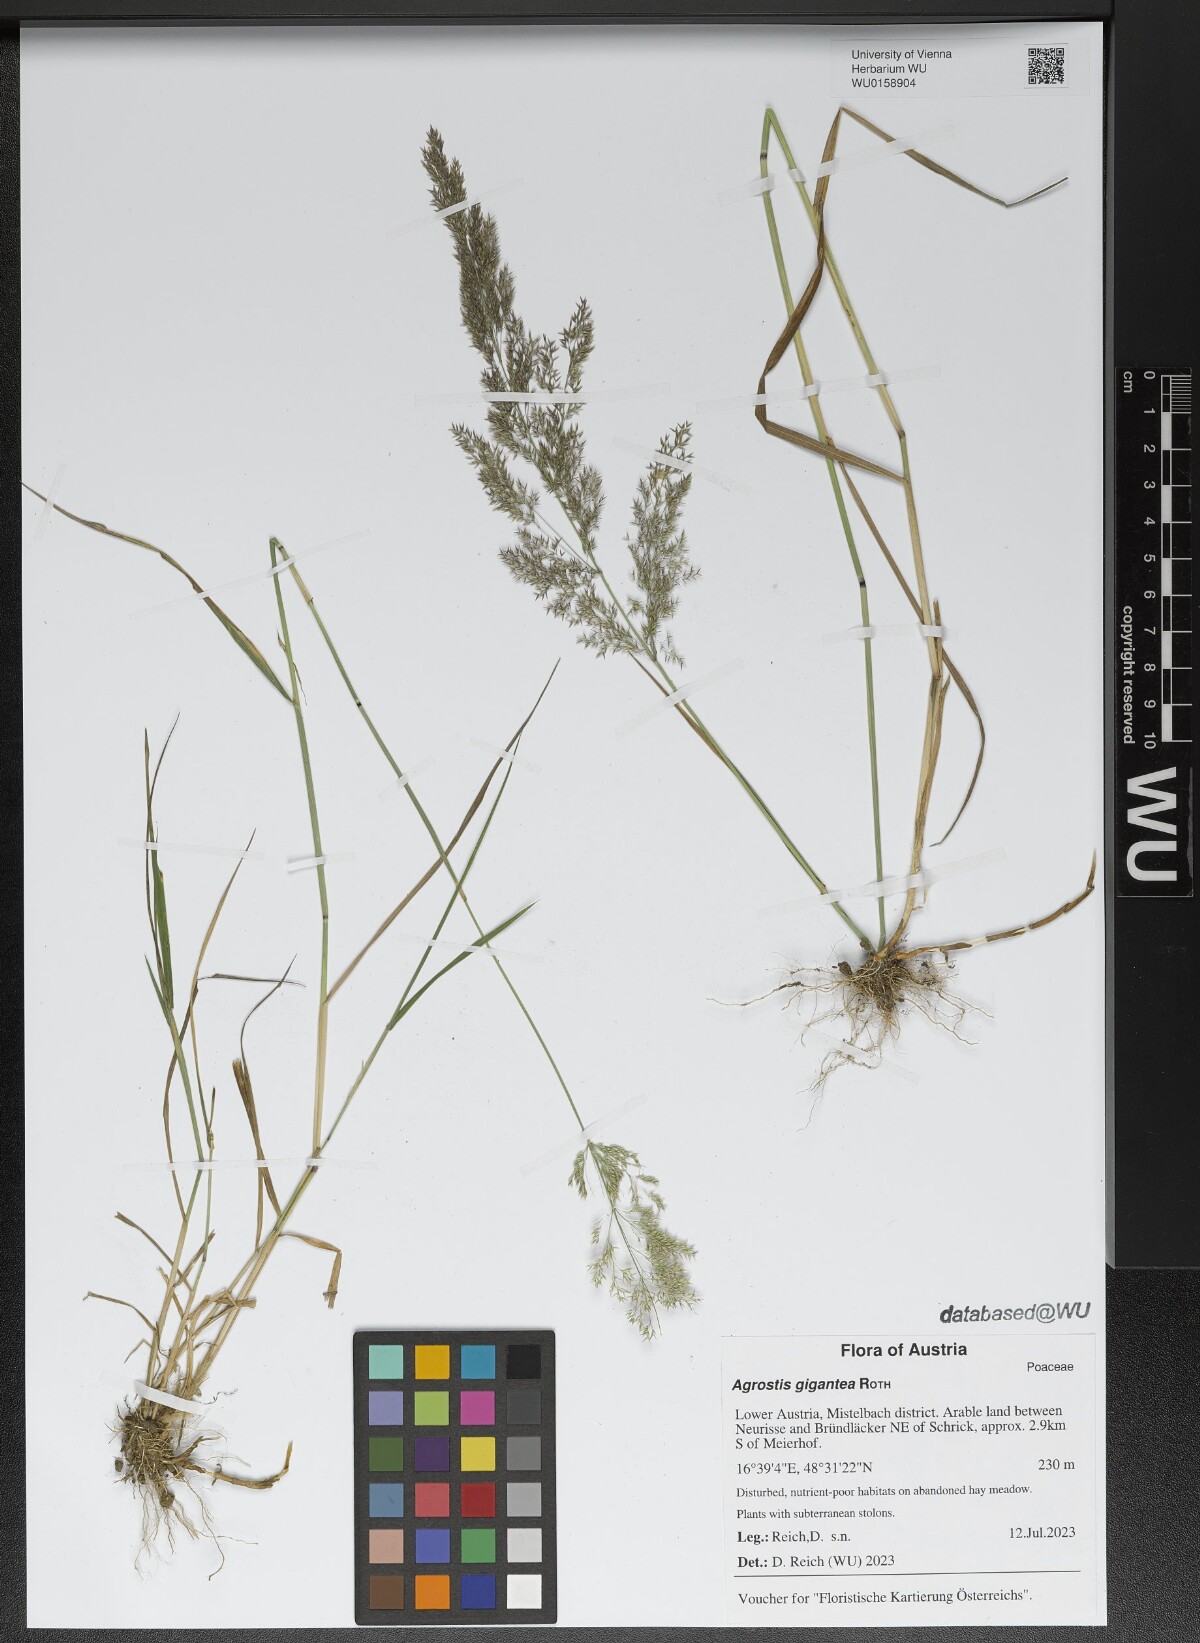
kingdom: Plantae
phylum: Tracheophyta
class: Liliopsida
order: Poales
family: Poaceae
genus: Agrostis
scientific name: Agrostis gigantea
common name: Black bent
